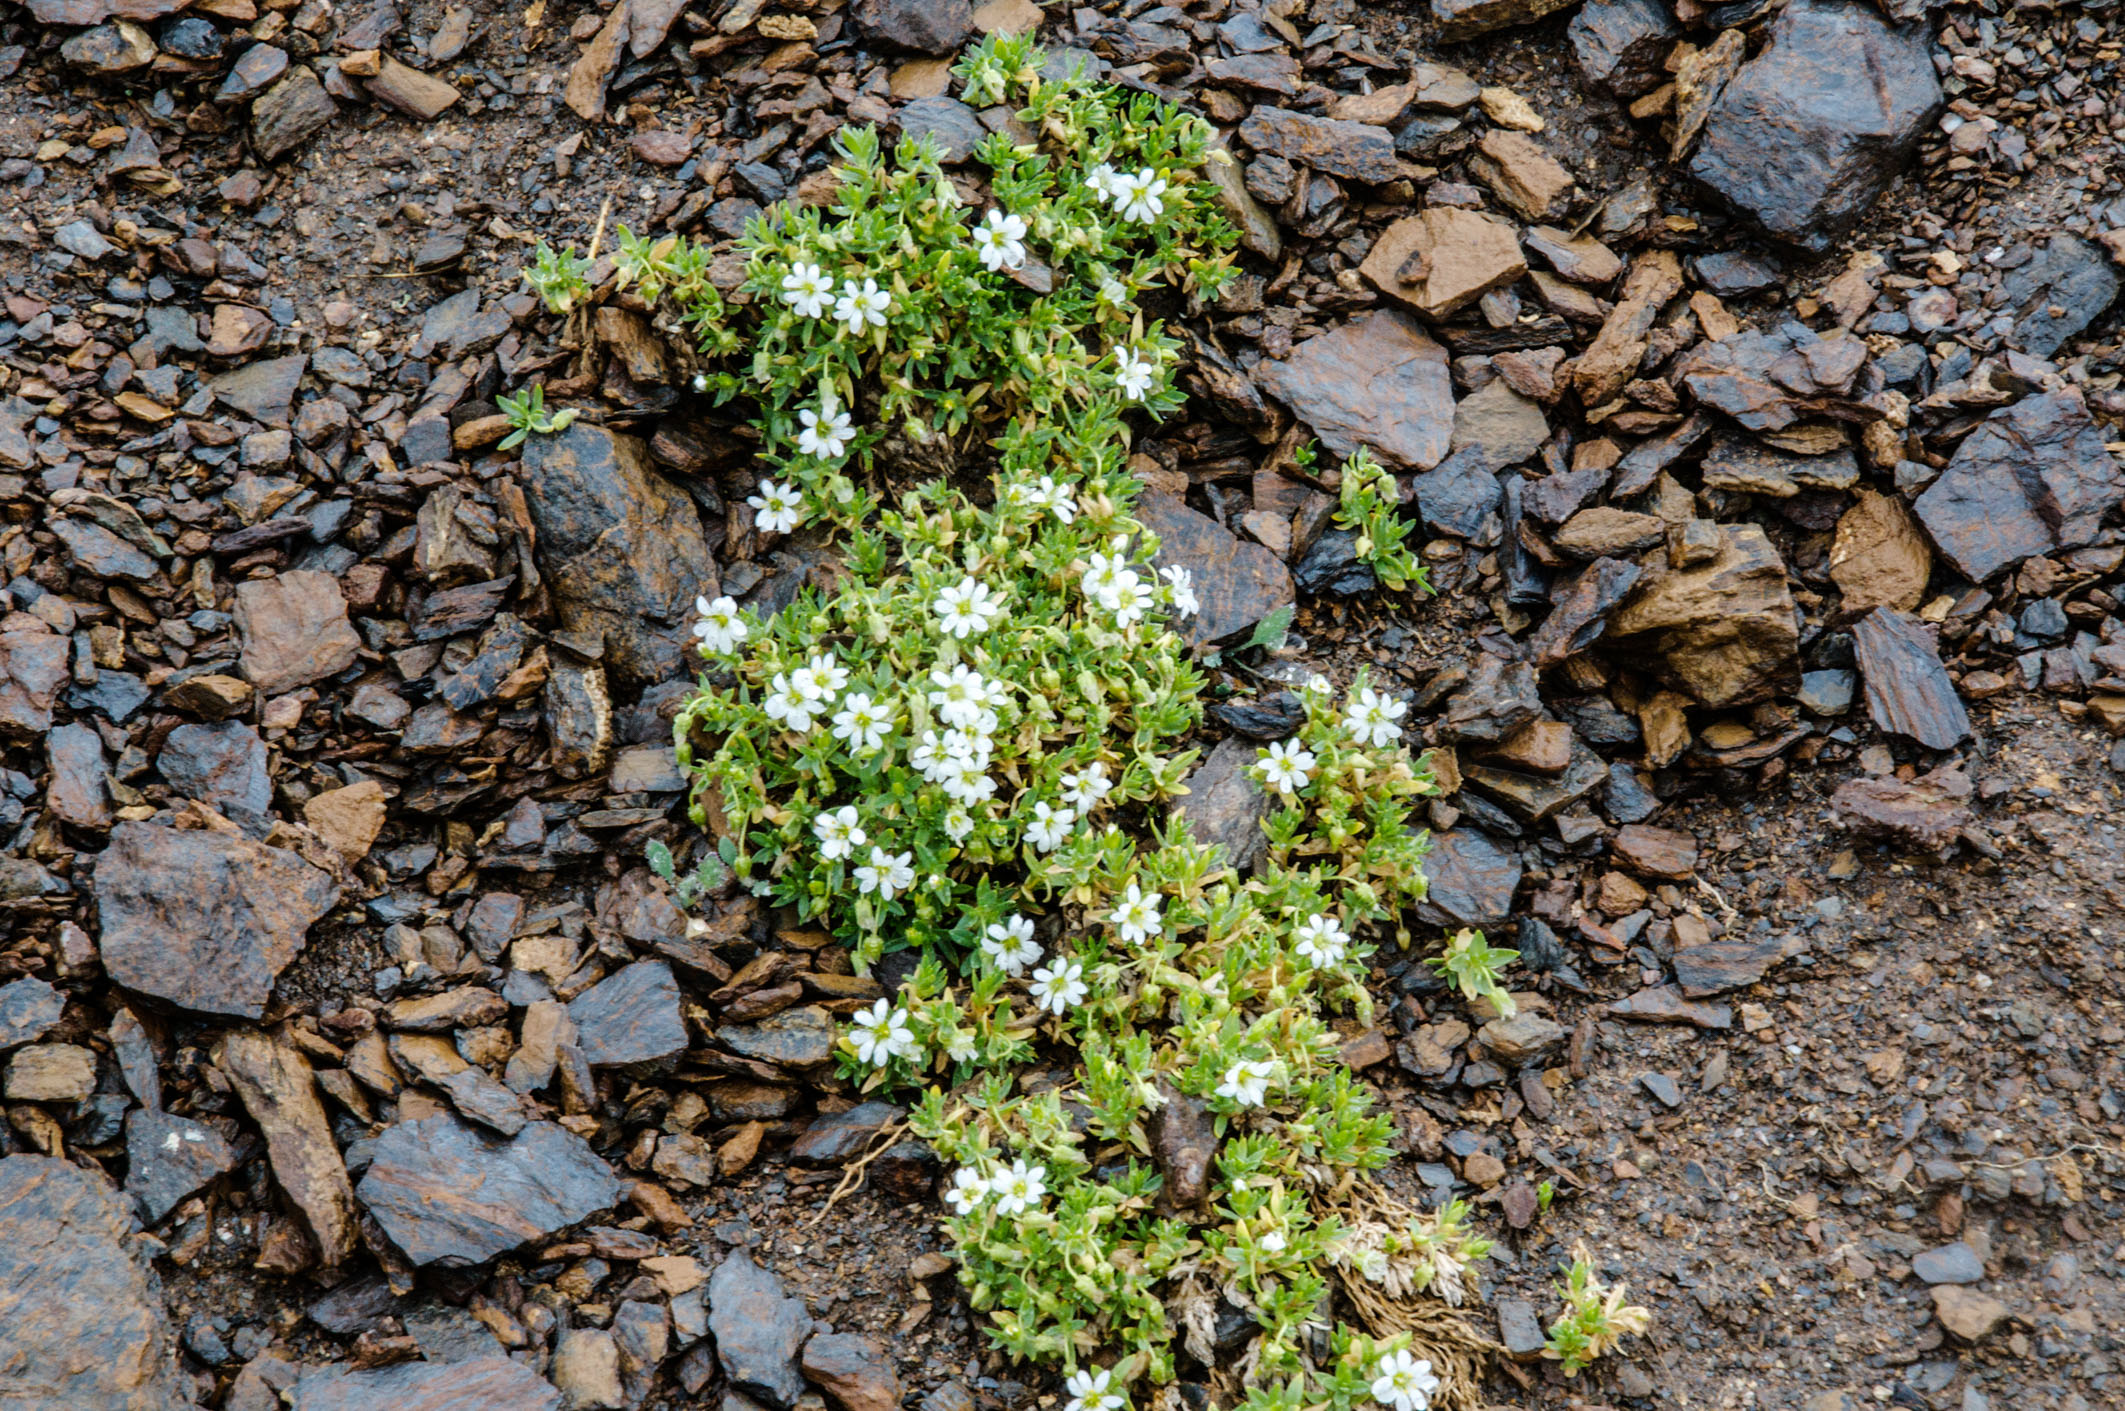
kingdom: Plantae
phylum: Tracheophyta
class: Magnoliopsida
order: Caryophyllales
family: Caryophyllaceae
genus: Cerastium
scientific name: Cerastium lithospermifolium
